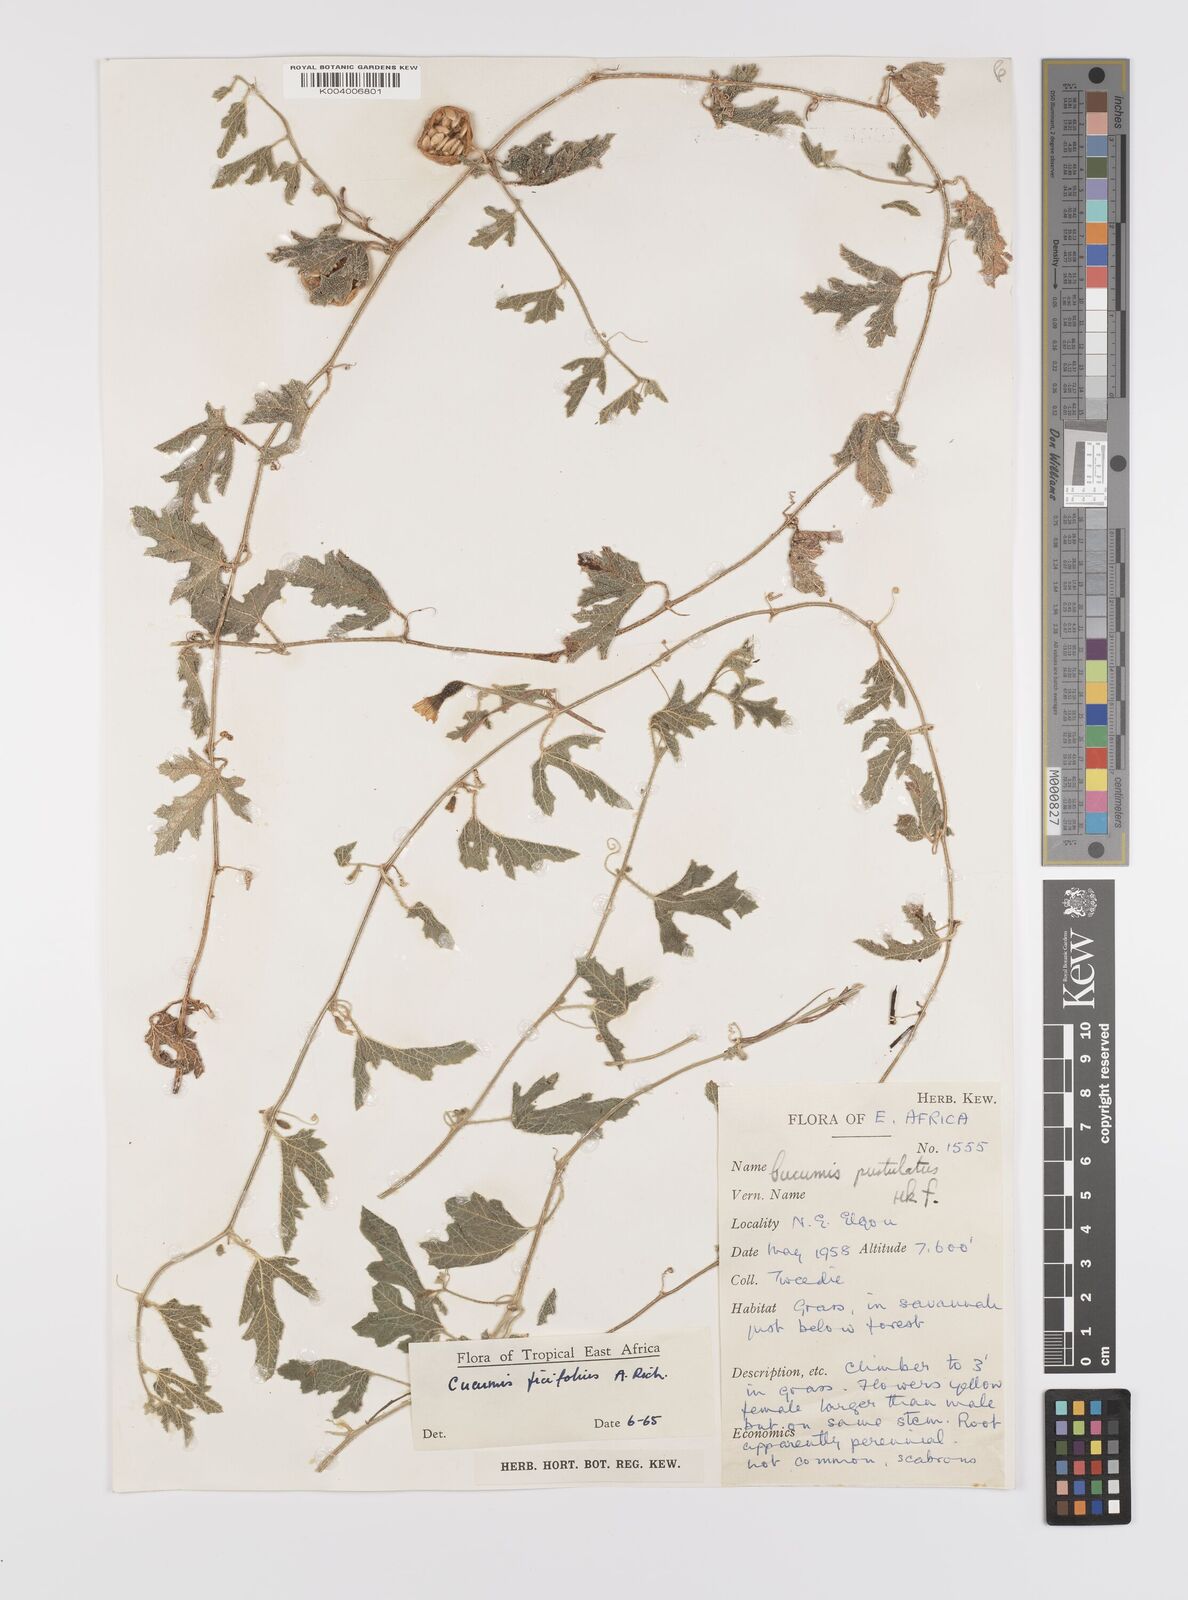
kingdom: Plantae
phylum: Tracheophyta
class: Magnoliopsida
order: Cucurbitales
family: Cucurbitaceae
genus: Cucumis
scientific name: Cucumis ficifolius
